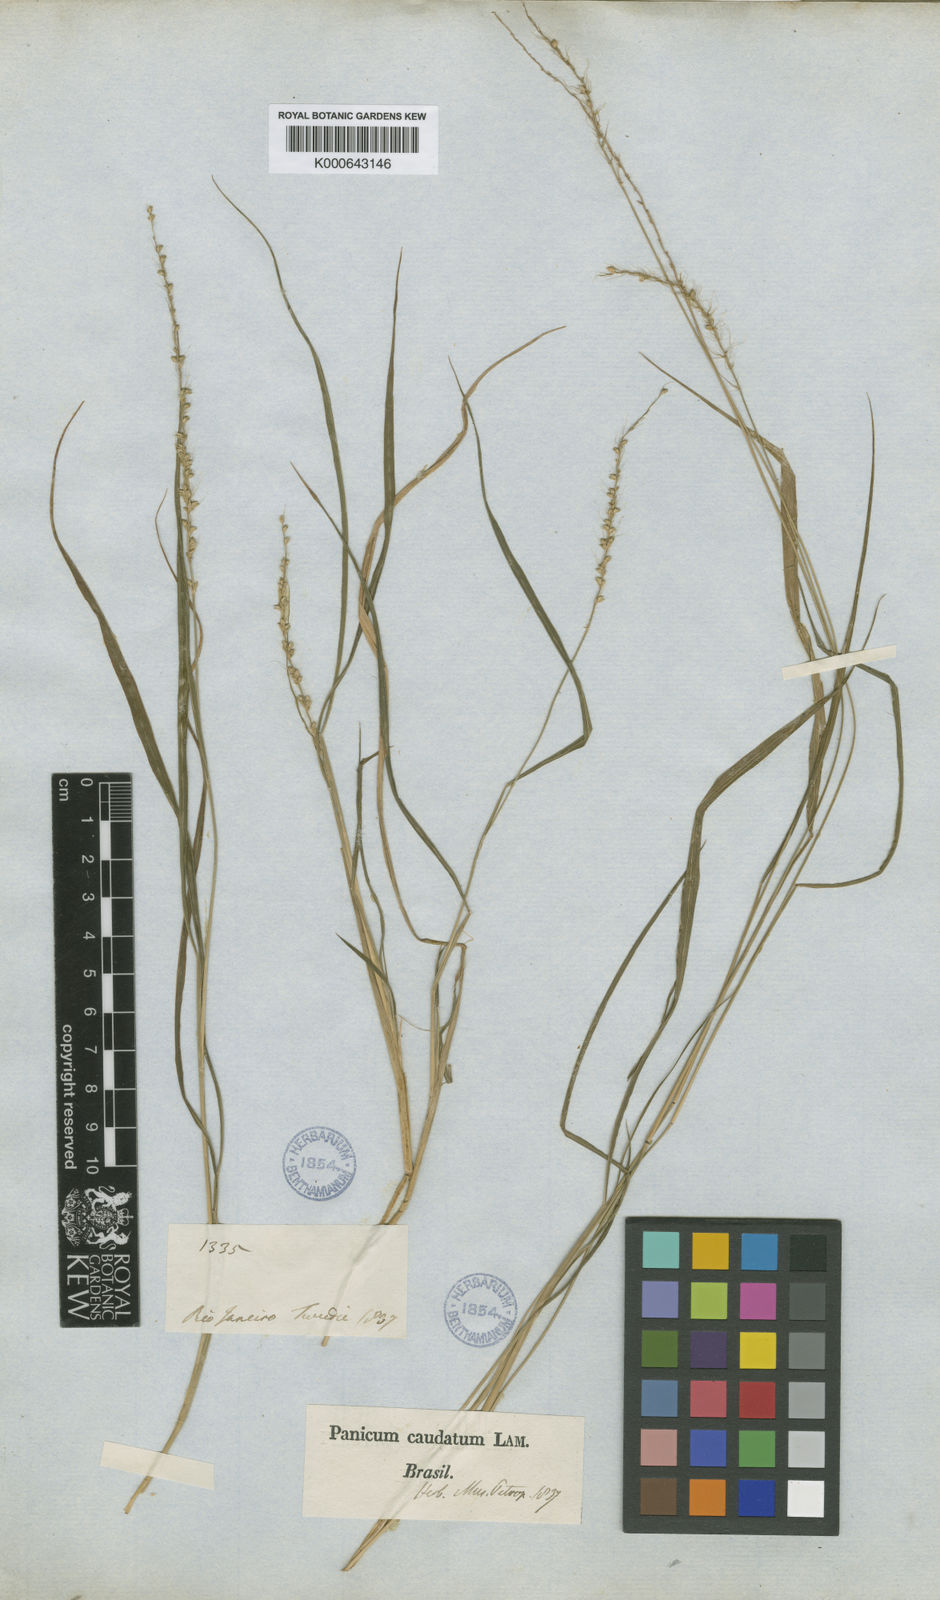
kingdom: Plantae
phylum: Tracheophyta
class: Liliopsida
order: Poales
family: Poaceae
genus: Setaria
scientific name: Setaria setosa
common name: West indies bristle grass
